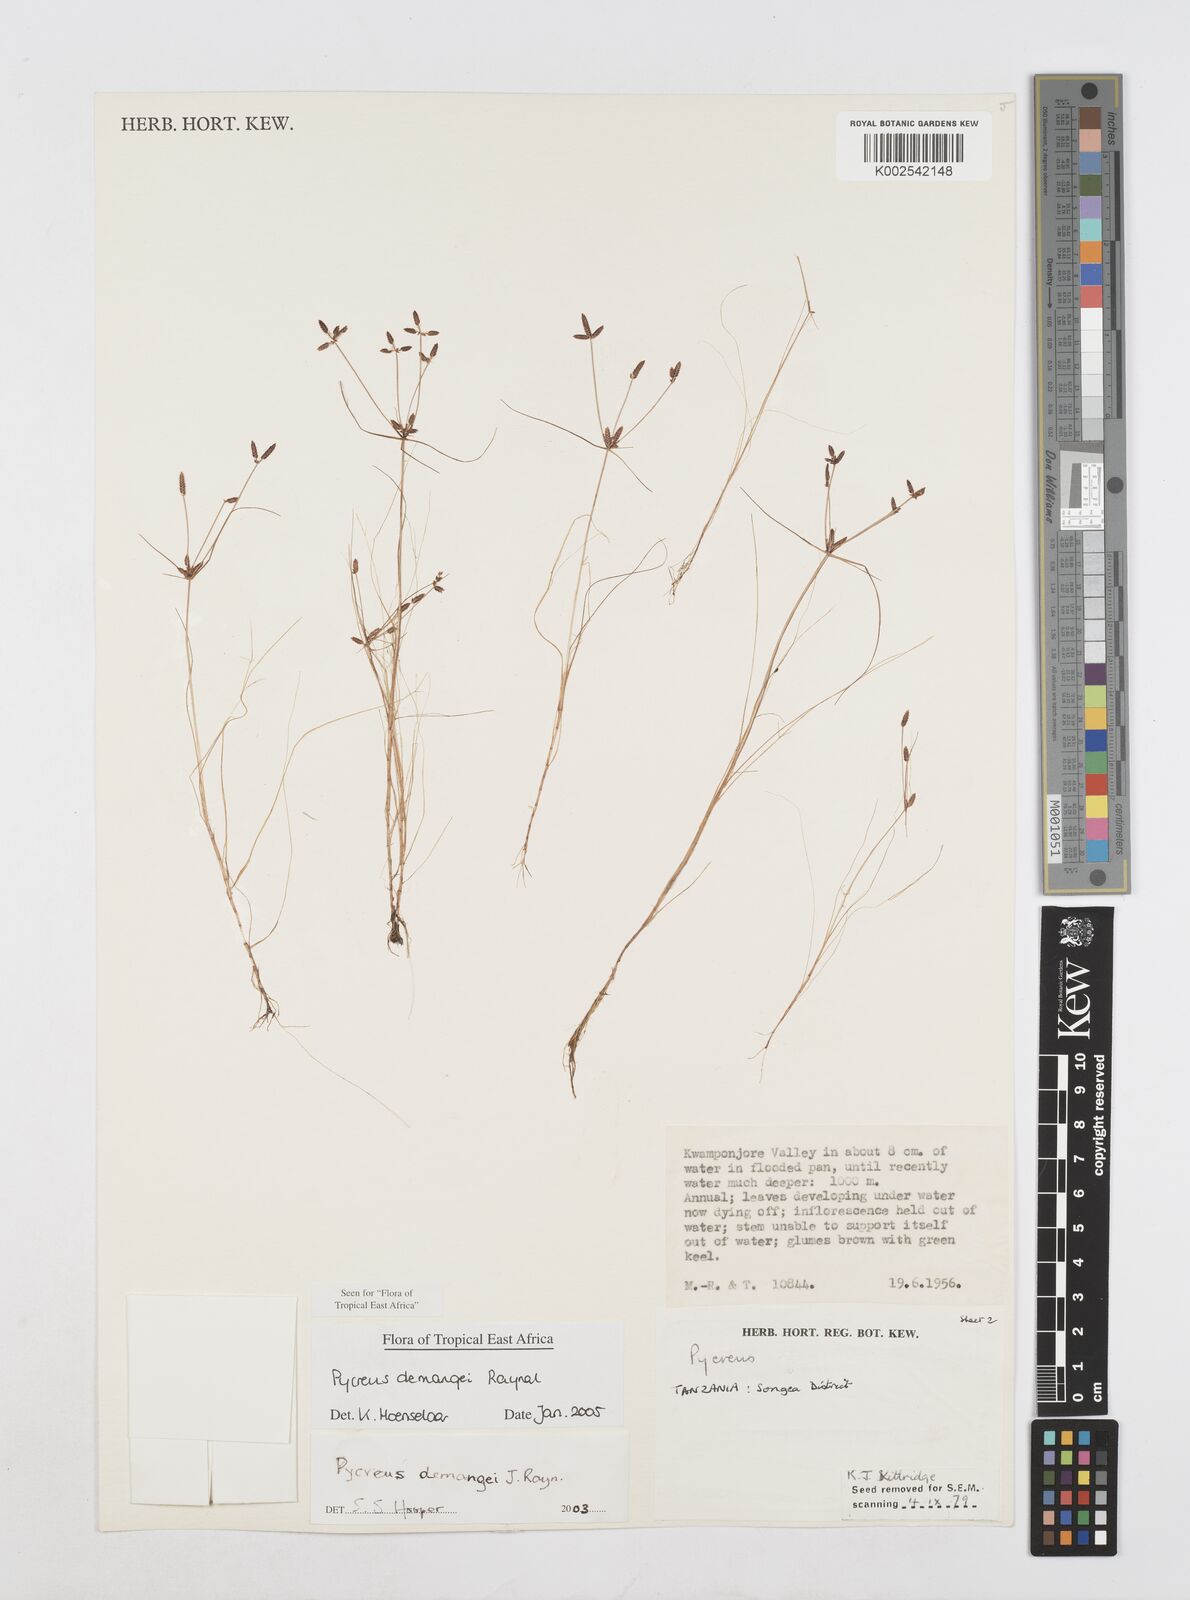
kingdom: Plantae
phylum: Tracheophyta
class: Liliopsida
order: Poales
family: Cyperaceae
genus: Cyperus
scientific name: Cyperus demangei
